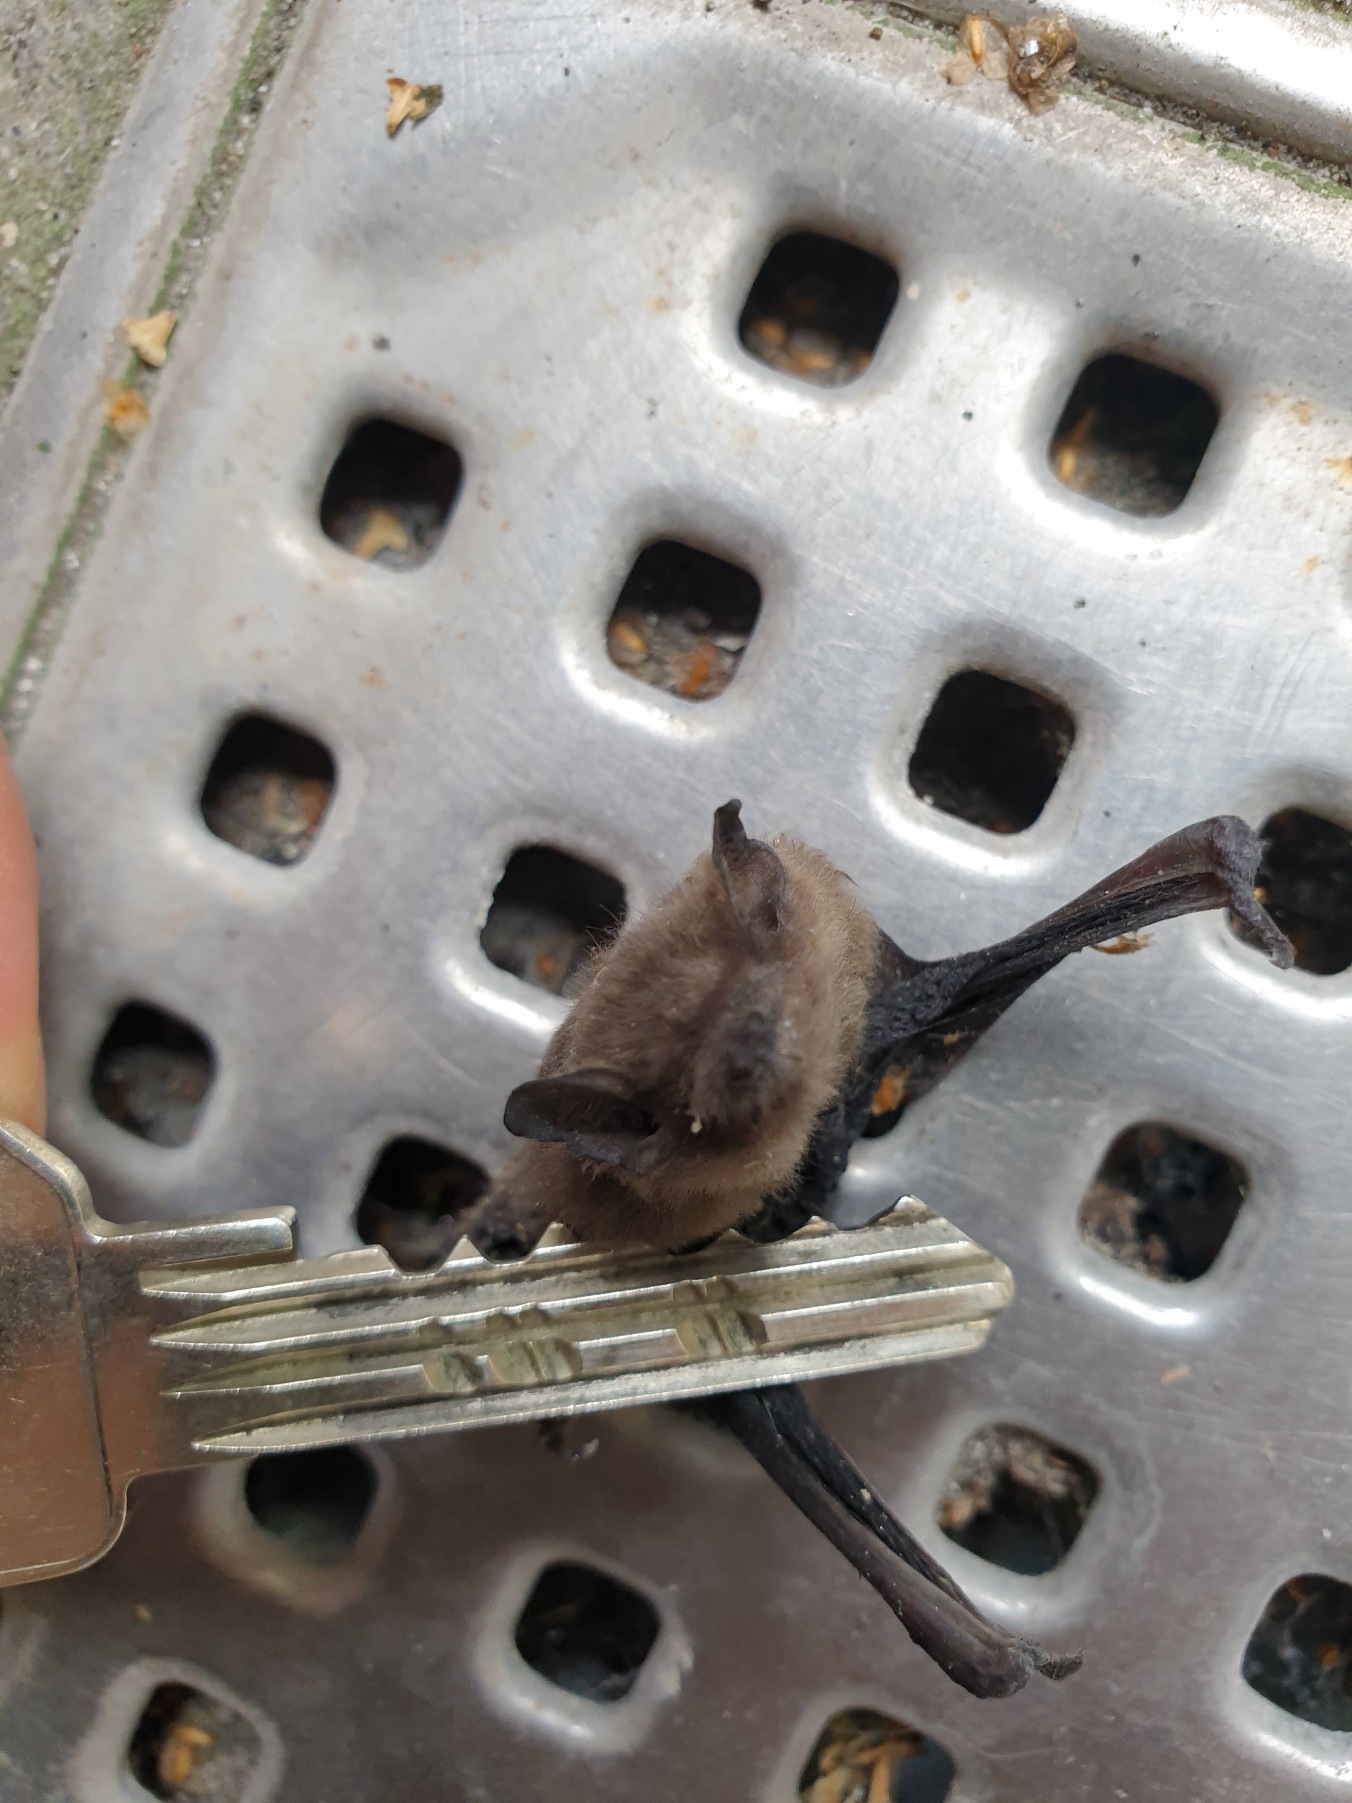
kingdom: Animalia
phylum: Chordata
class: Mammalia
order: Chiroptera
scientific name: Chiroptera
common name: Flagermus
